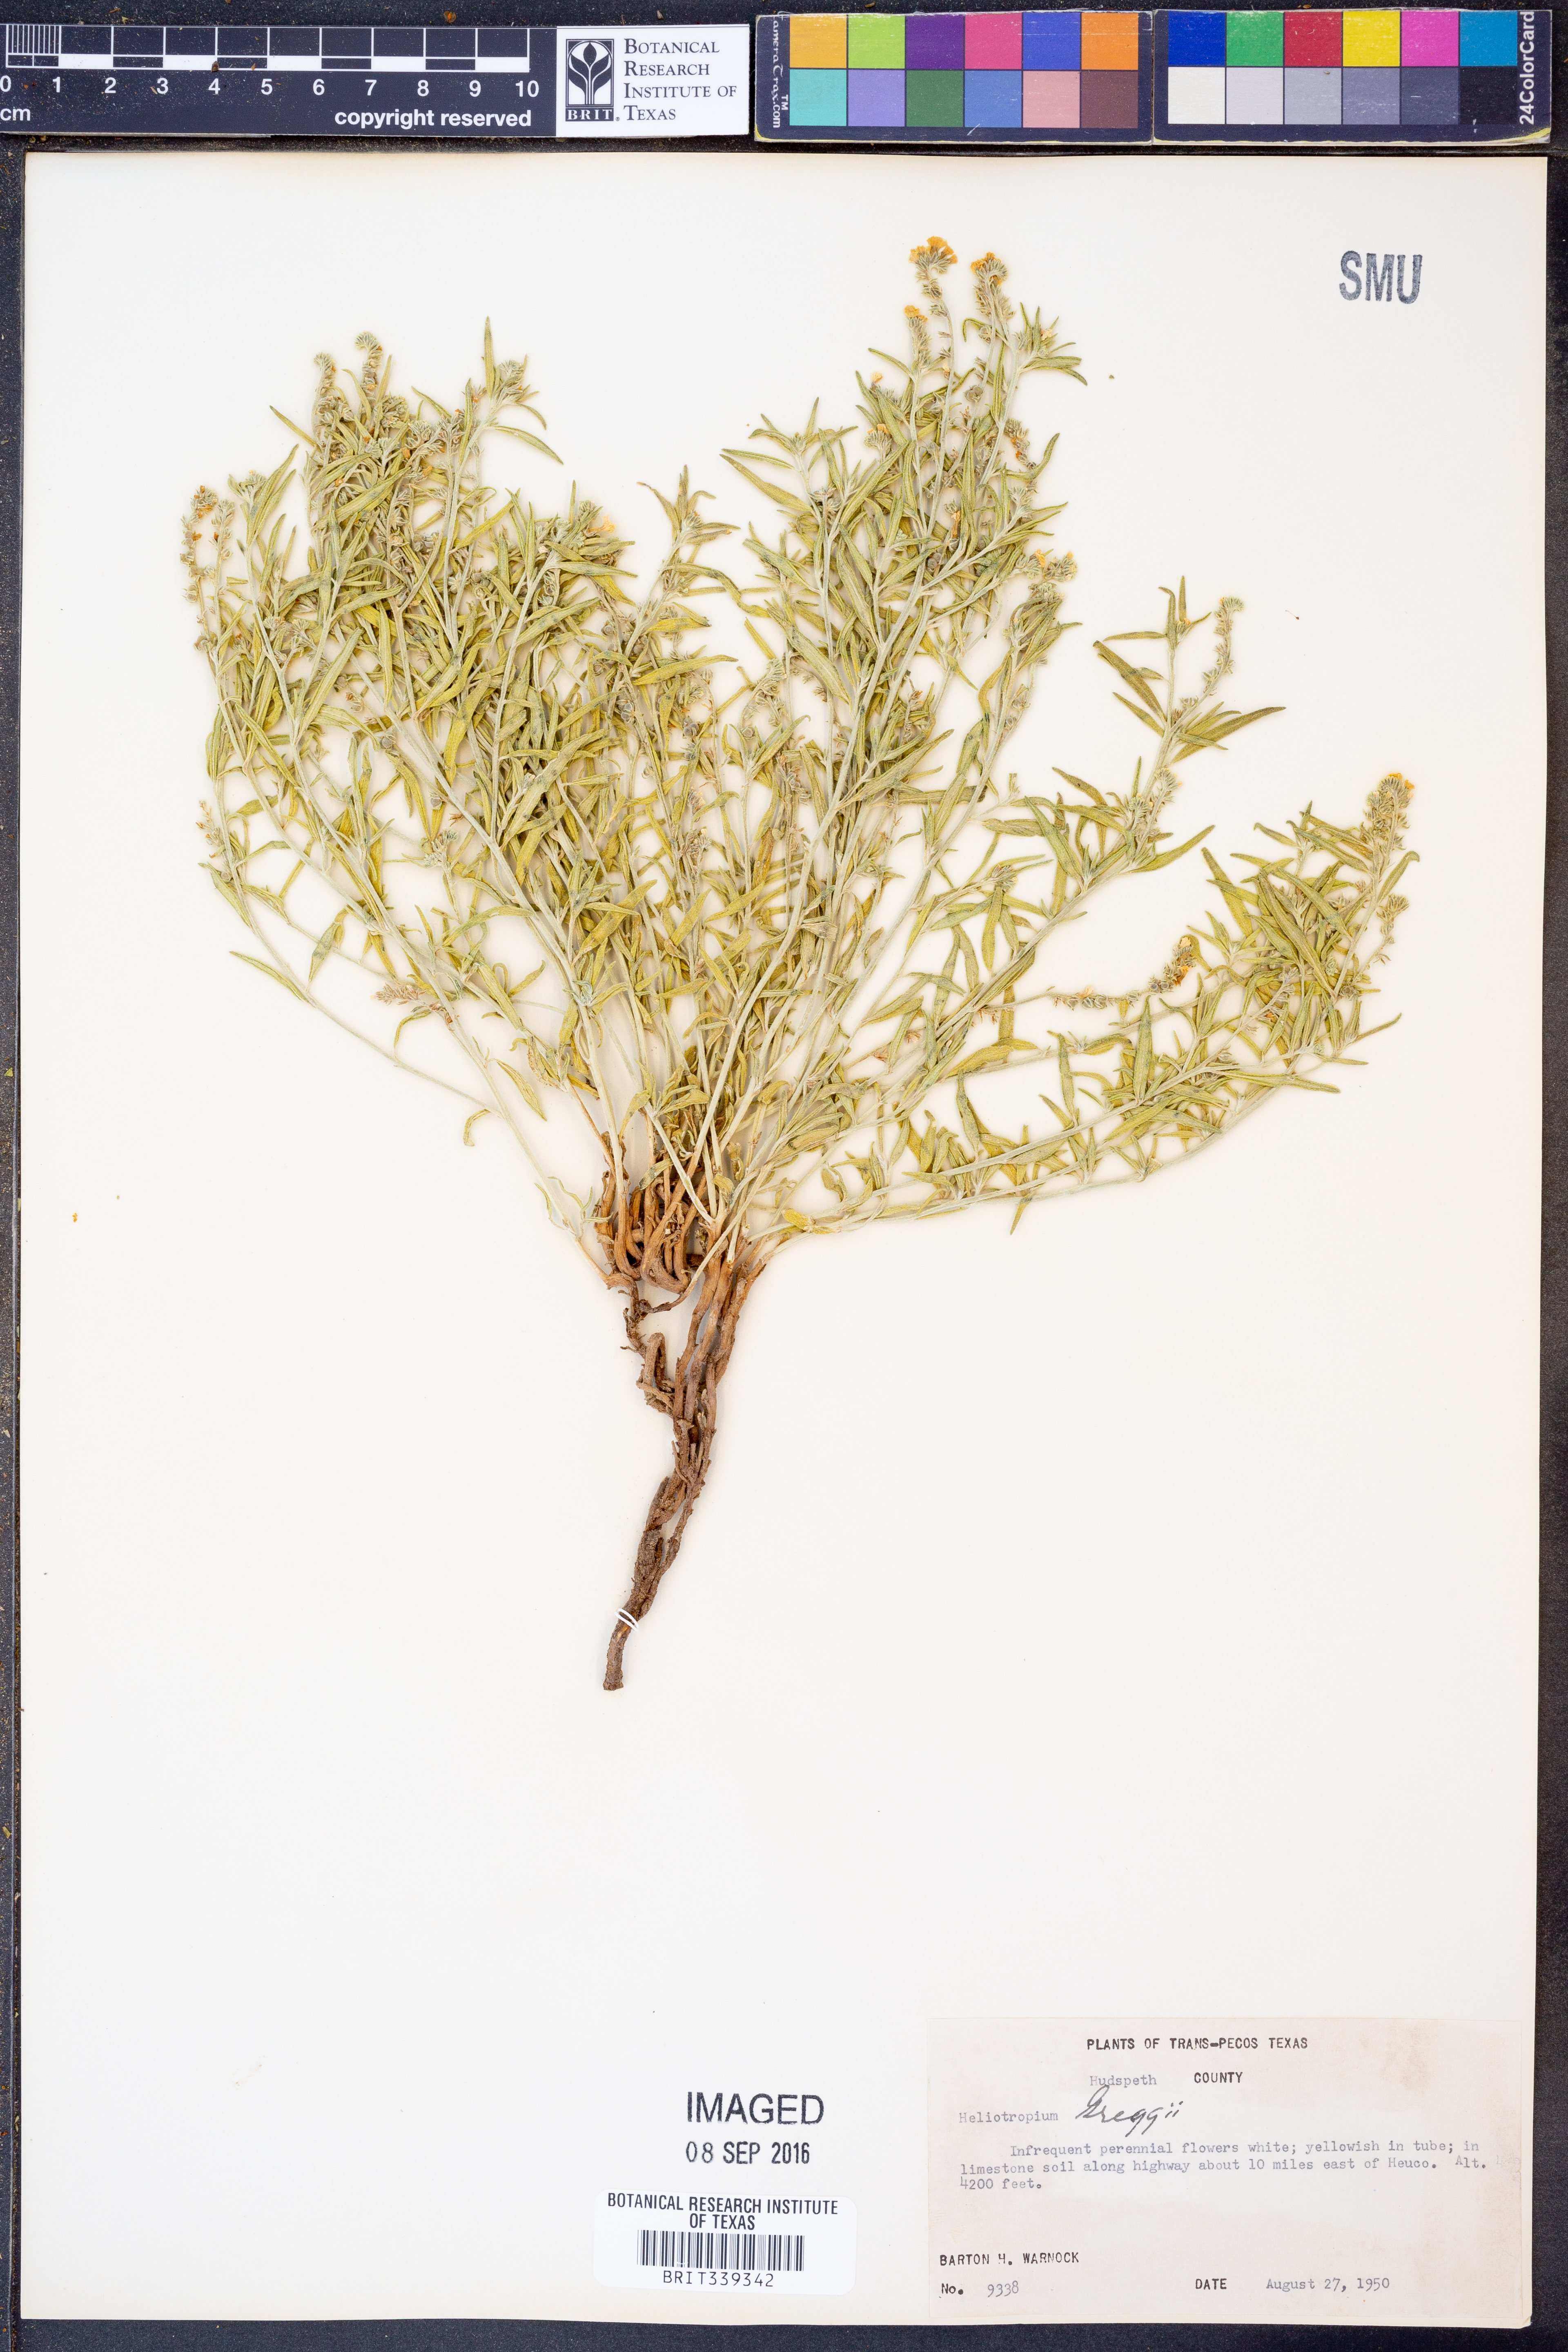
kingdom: Plantae
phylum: Tracheophyta
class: Magnoliopsida
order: Boraginales
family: Heliotropiaceae
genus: Euploca
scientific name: Euploca greggii
